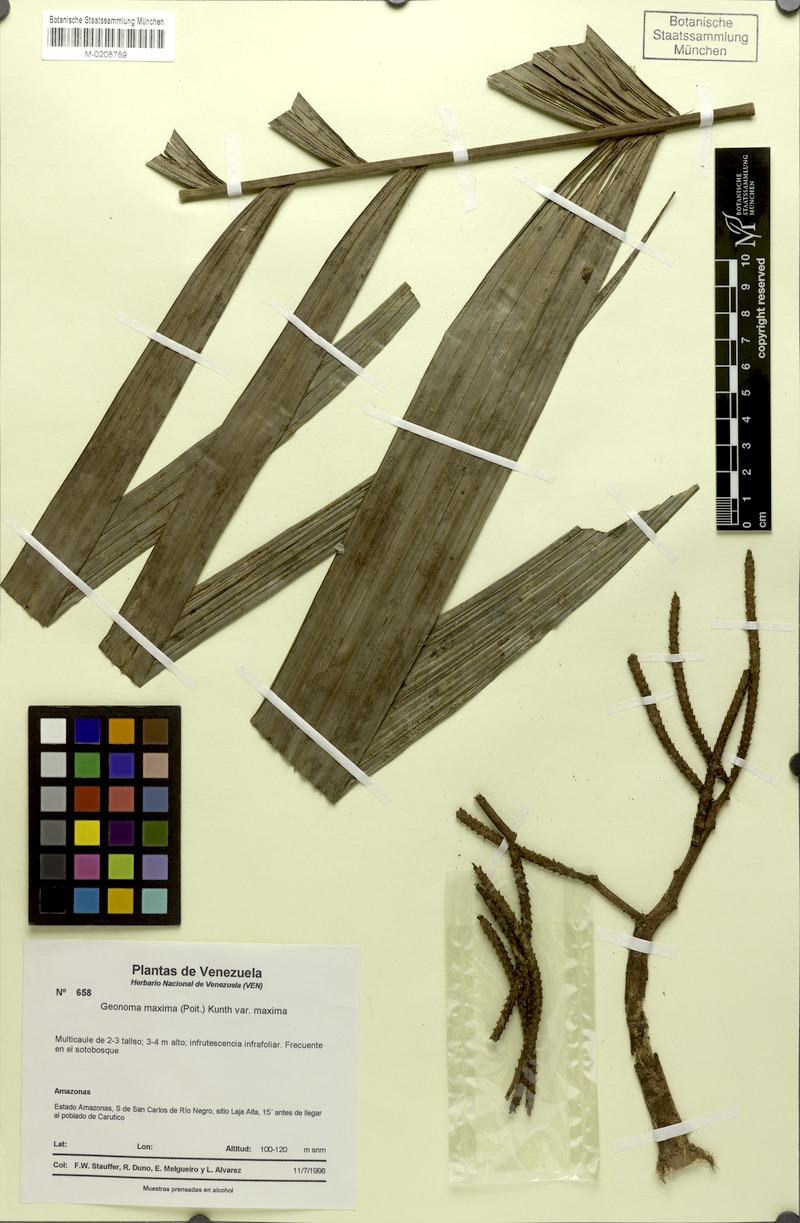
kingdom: Plantae
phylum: Tracheophyta
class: Liliopsida
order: Arecales
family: Arecaceae
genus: Geonoma
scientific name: Geonoma maxima
